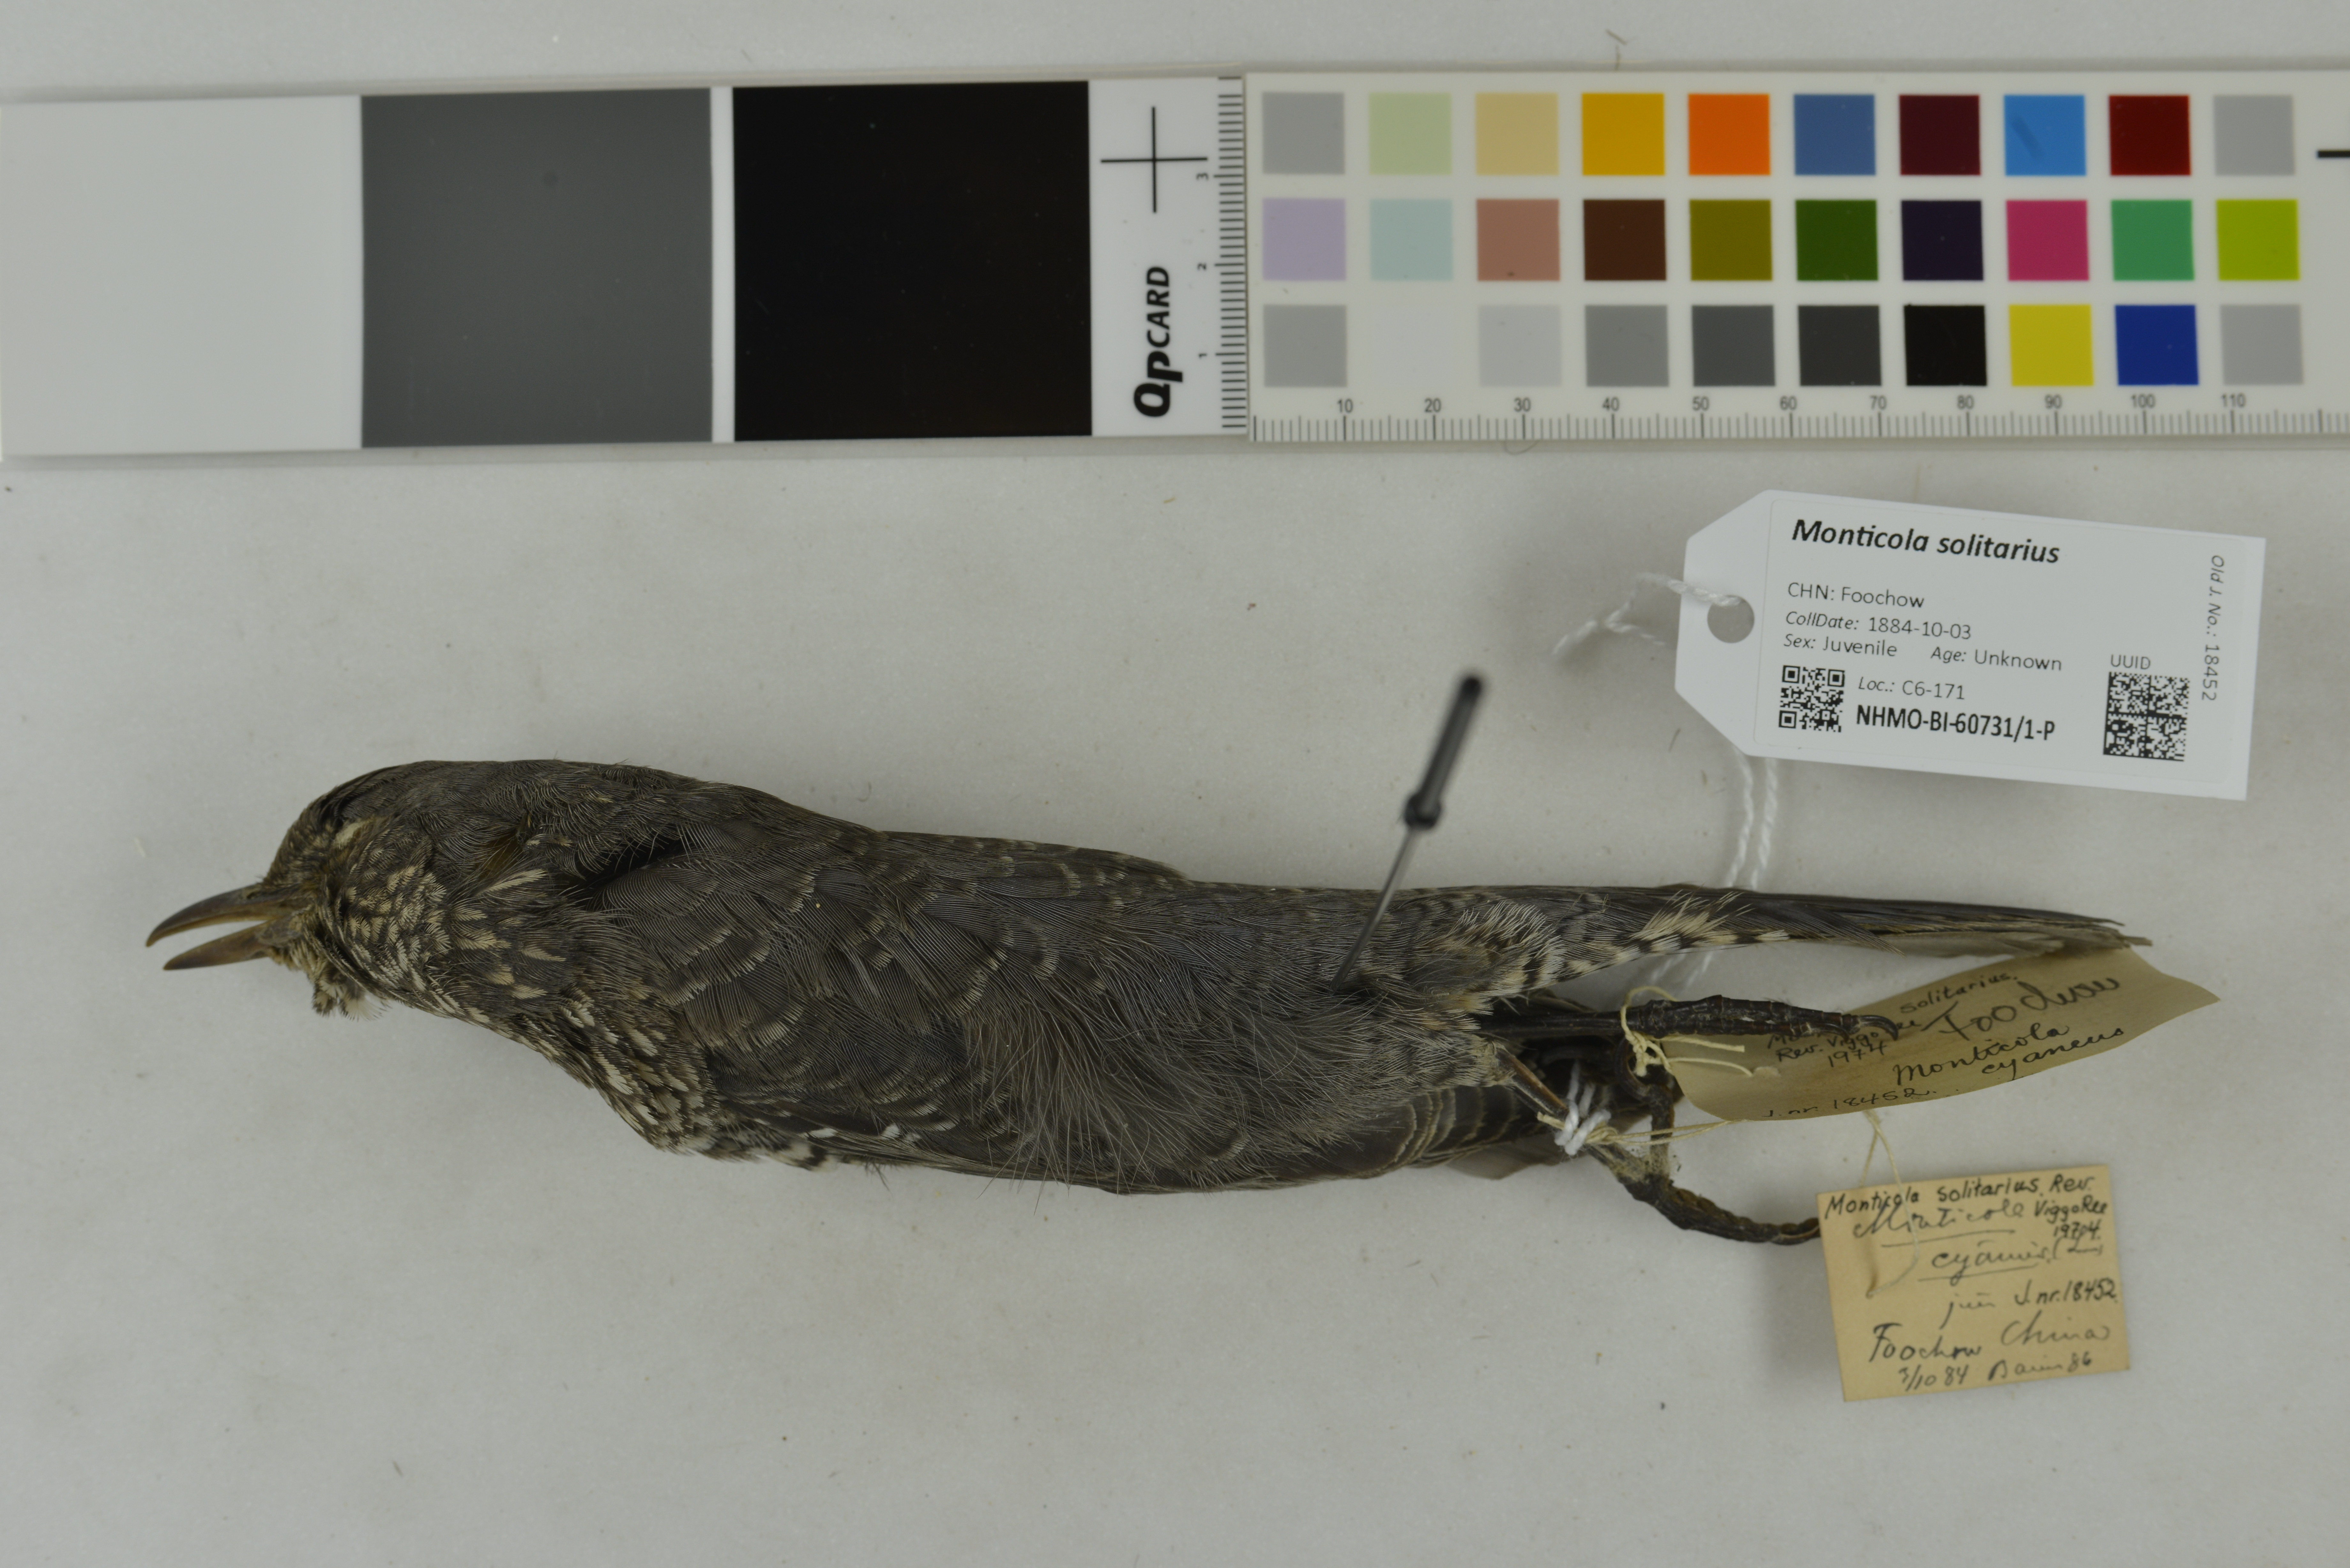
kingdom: Animalia
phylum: Chordata
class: Aves
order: Passeriformes
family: Muscicapidae
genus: Monticola
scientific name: Monticola solitarius
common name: Blue rock thrush
